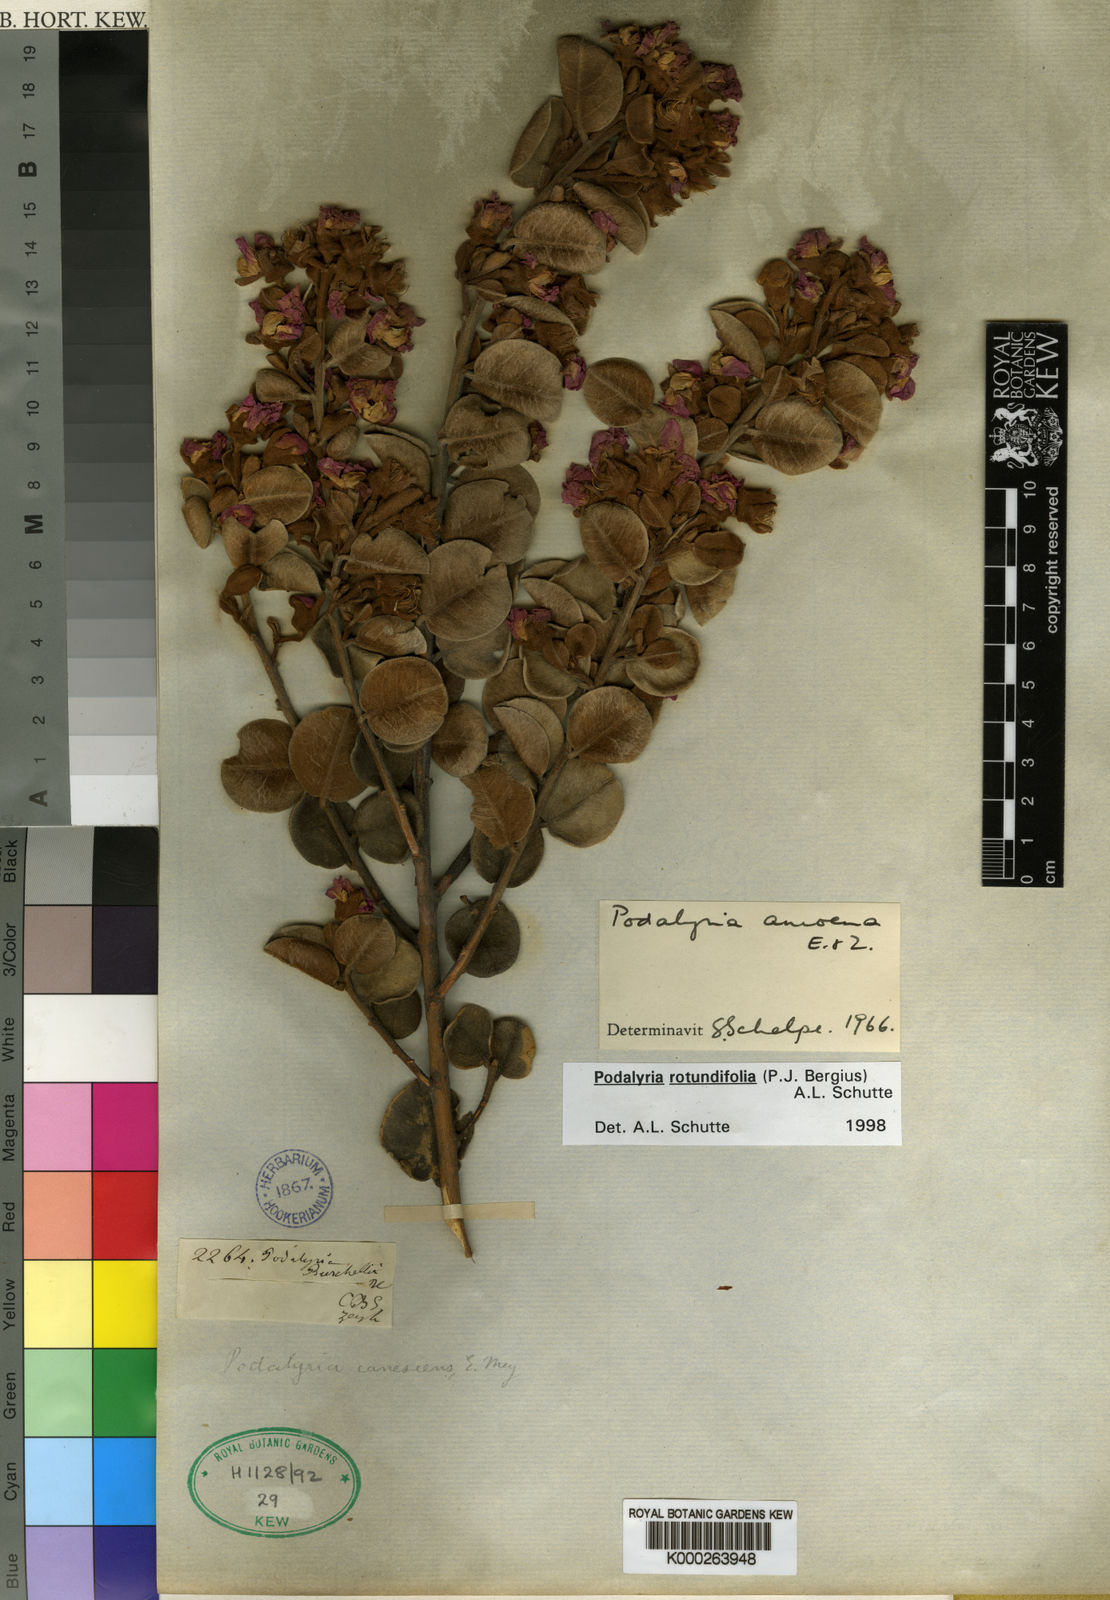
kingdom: Plantae
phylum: Tracheophyta
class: Magnoliopsida
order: Fabales
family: Fabaceae
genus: Podalyria
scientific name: Podalyria
